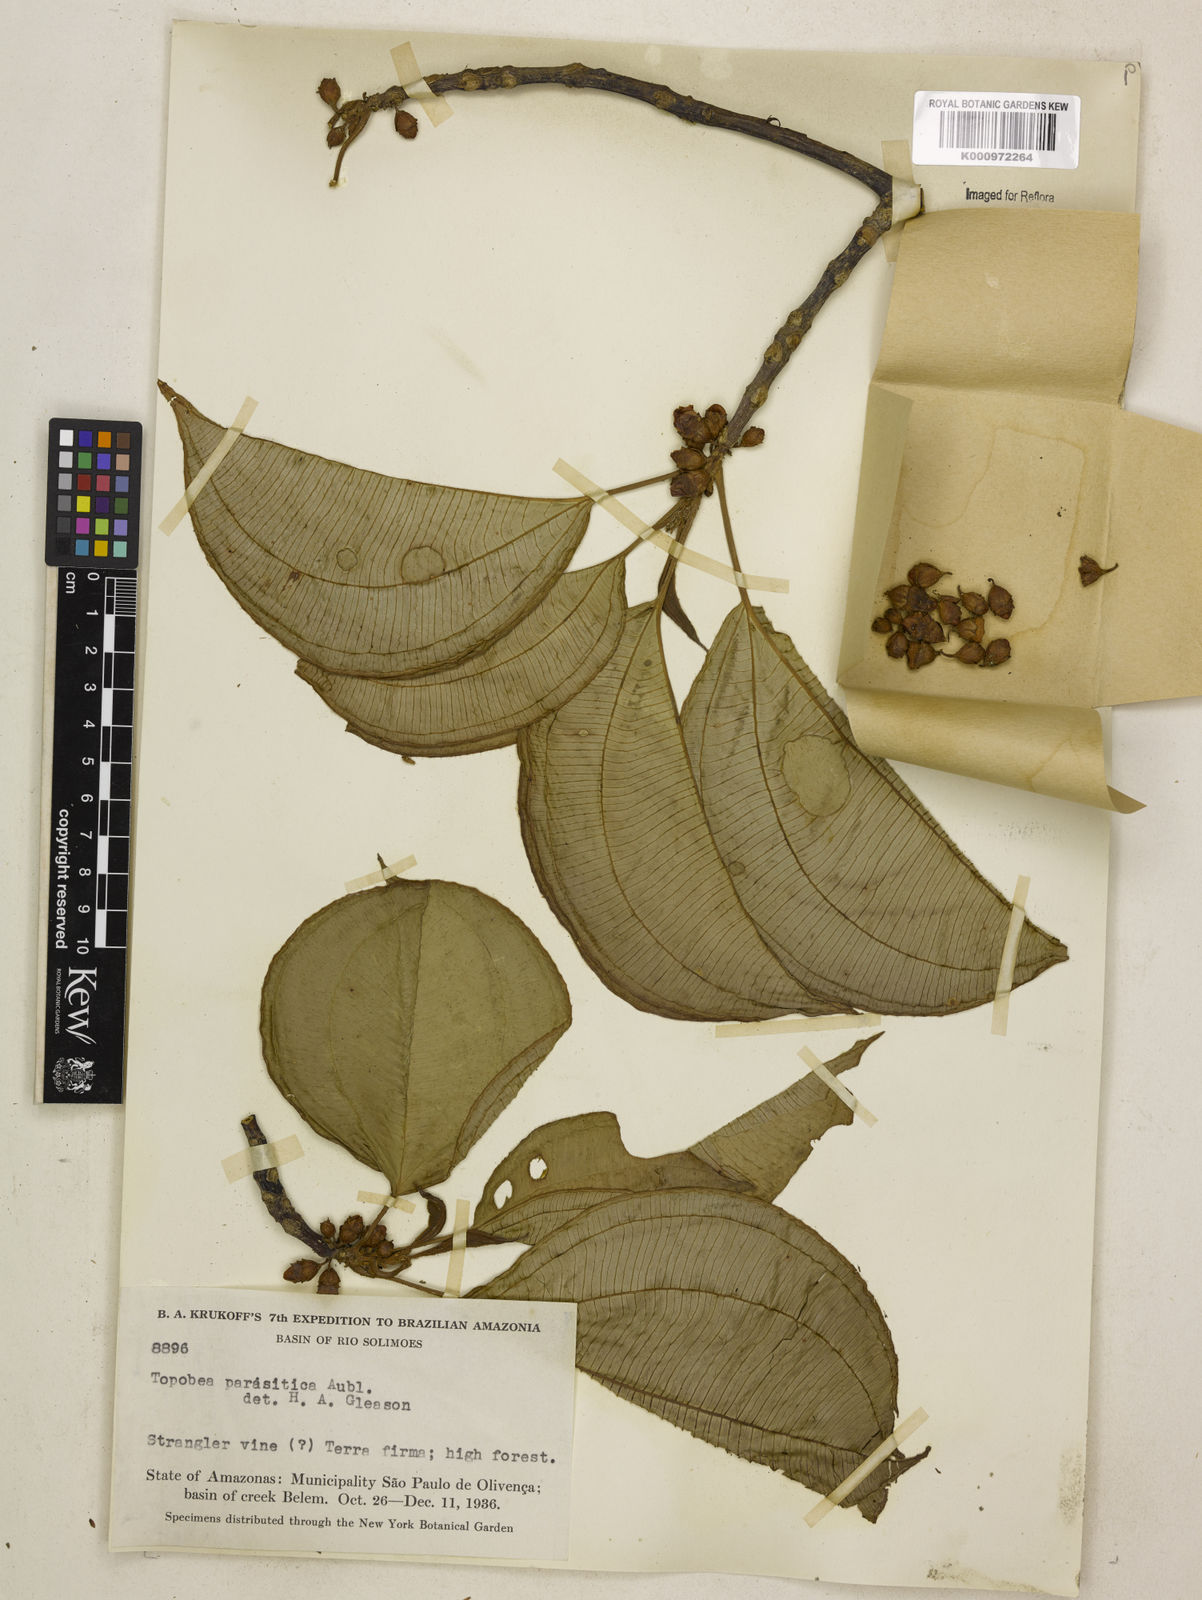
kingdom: Plantae
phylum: Tracheophyta
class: Magnoliopsida
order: Myrtales
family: Melastomataceae
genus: Blakea
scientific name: Blakea parasitica
